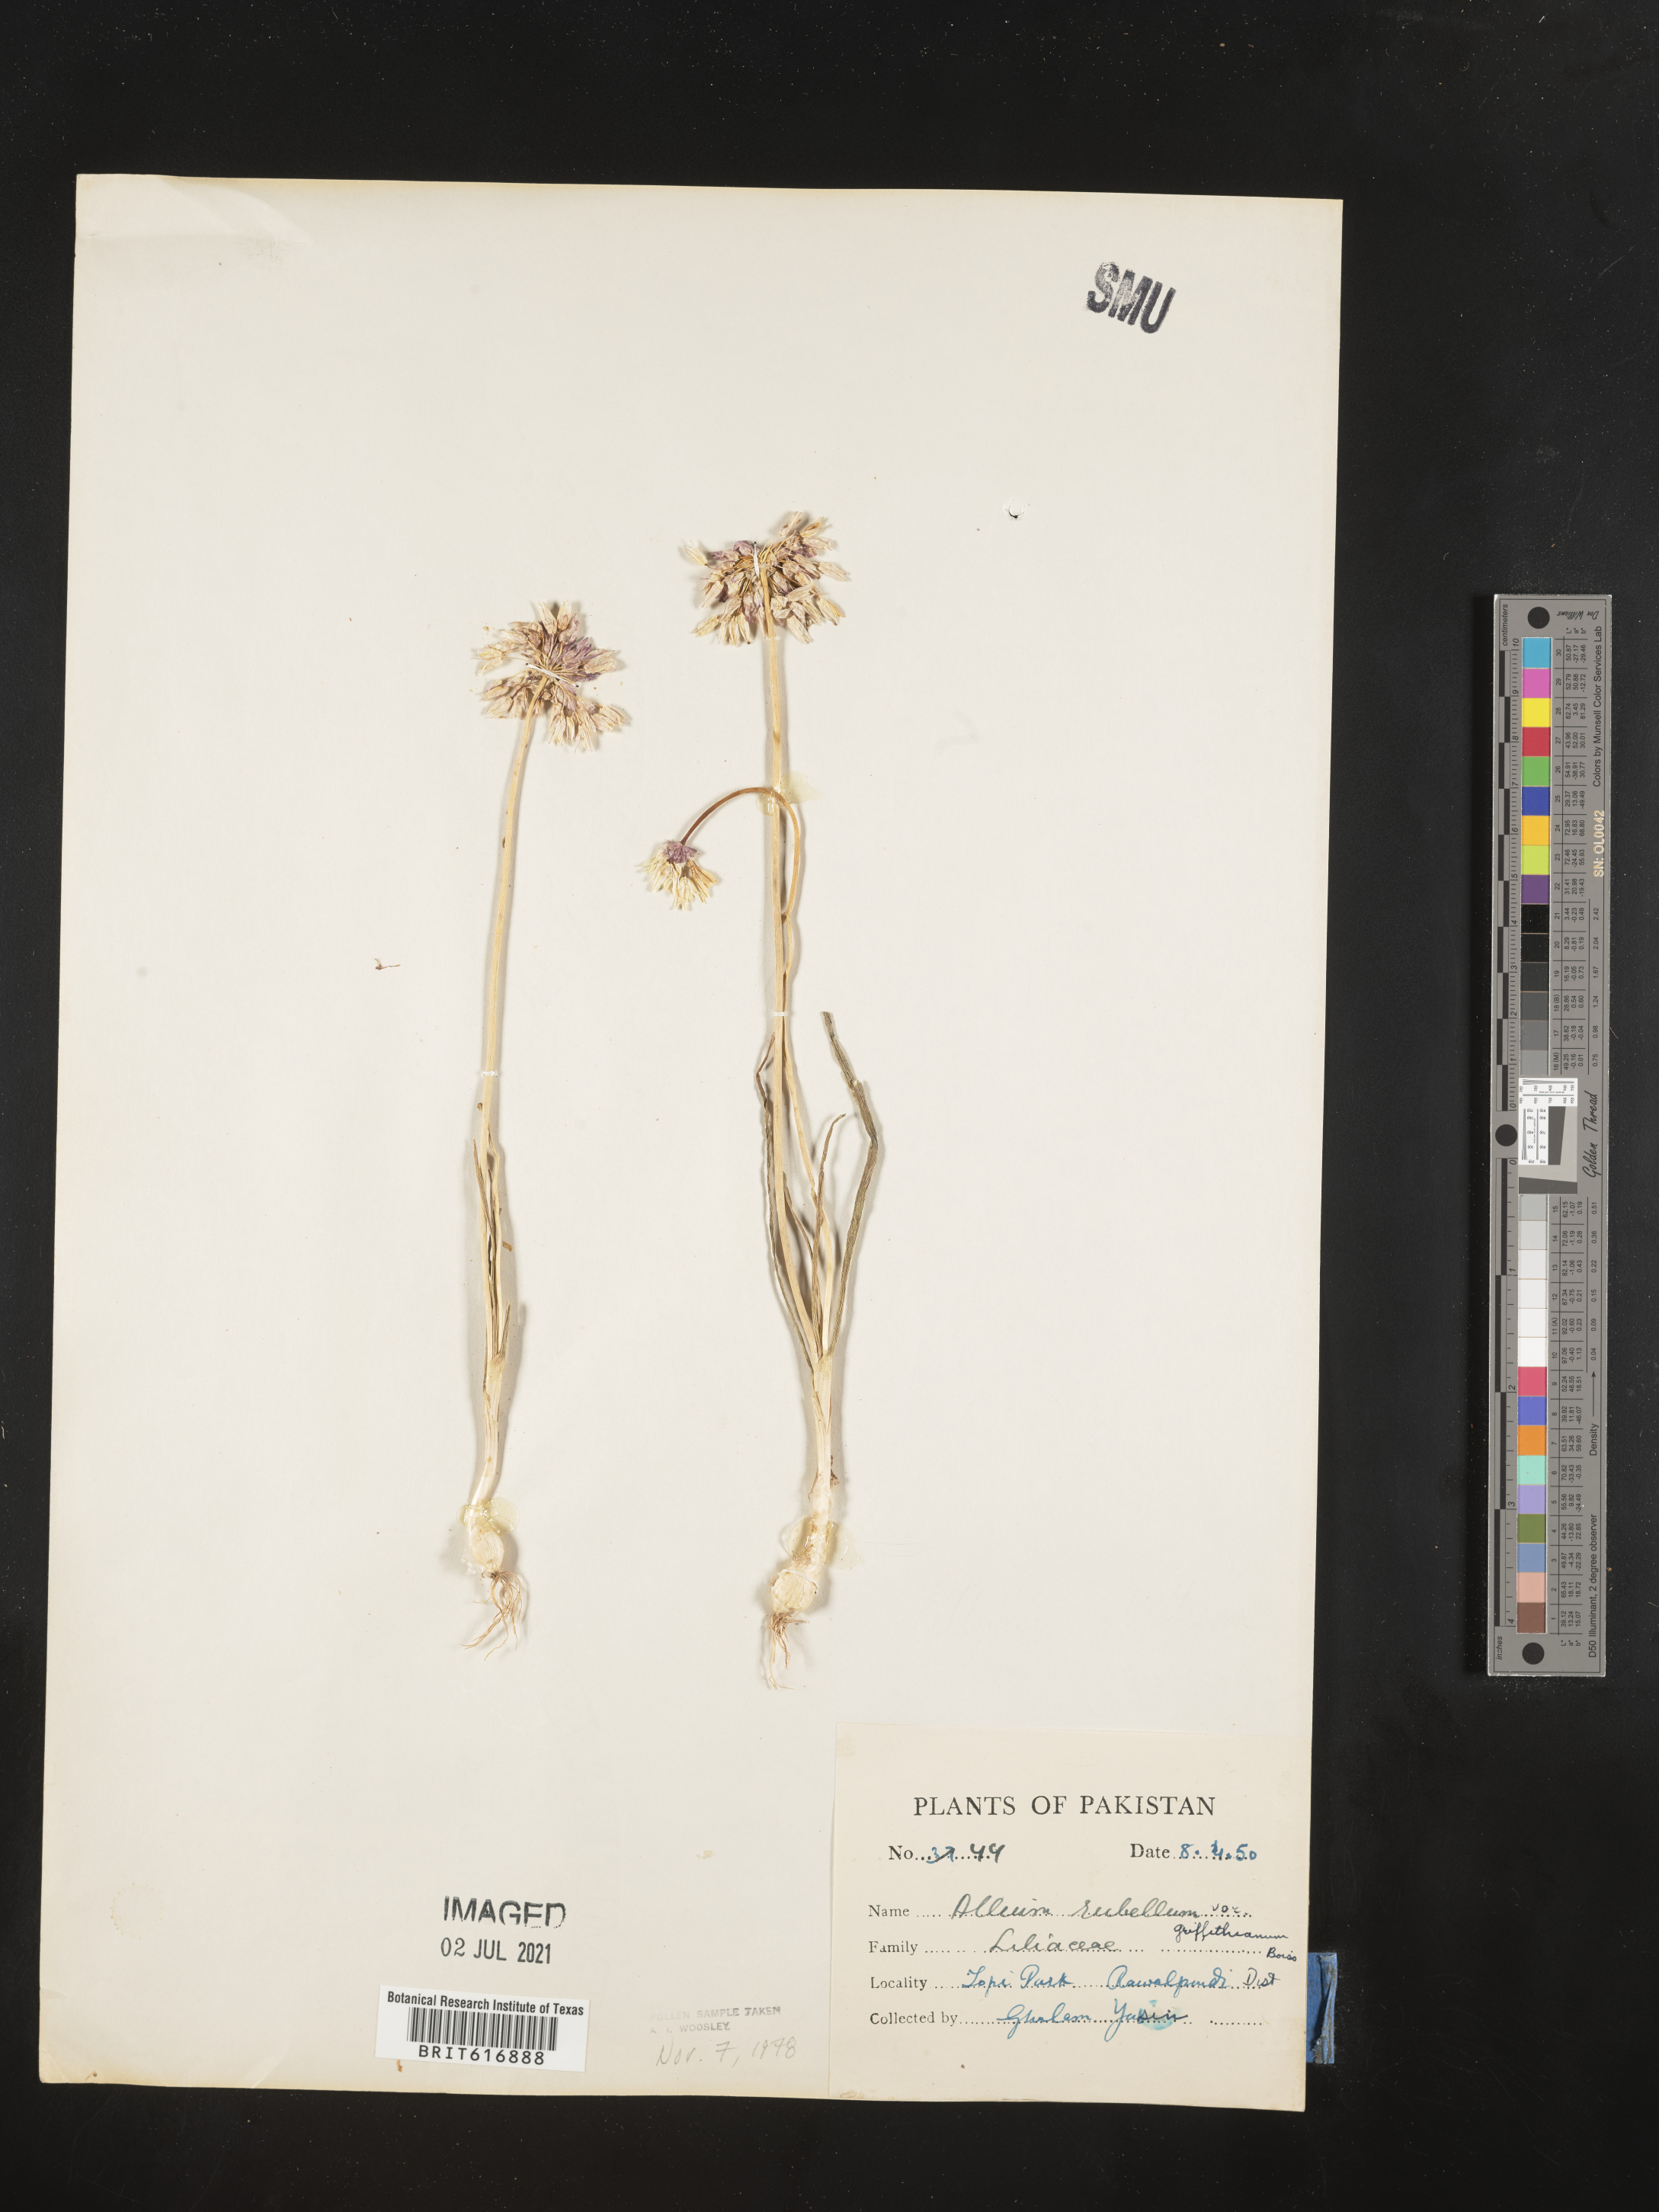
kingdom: Plantae
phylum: Tracheophyta
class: Liliopsida
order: Asparagales
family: Amaryllidaceae
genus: Allium
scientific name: Allium rubellum
